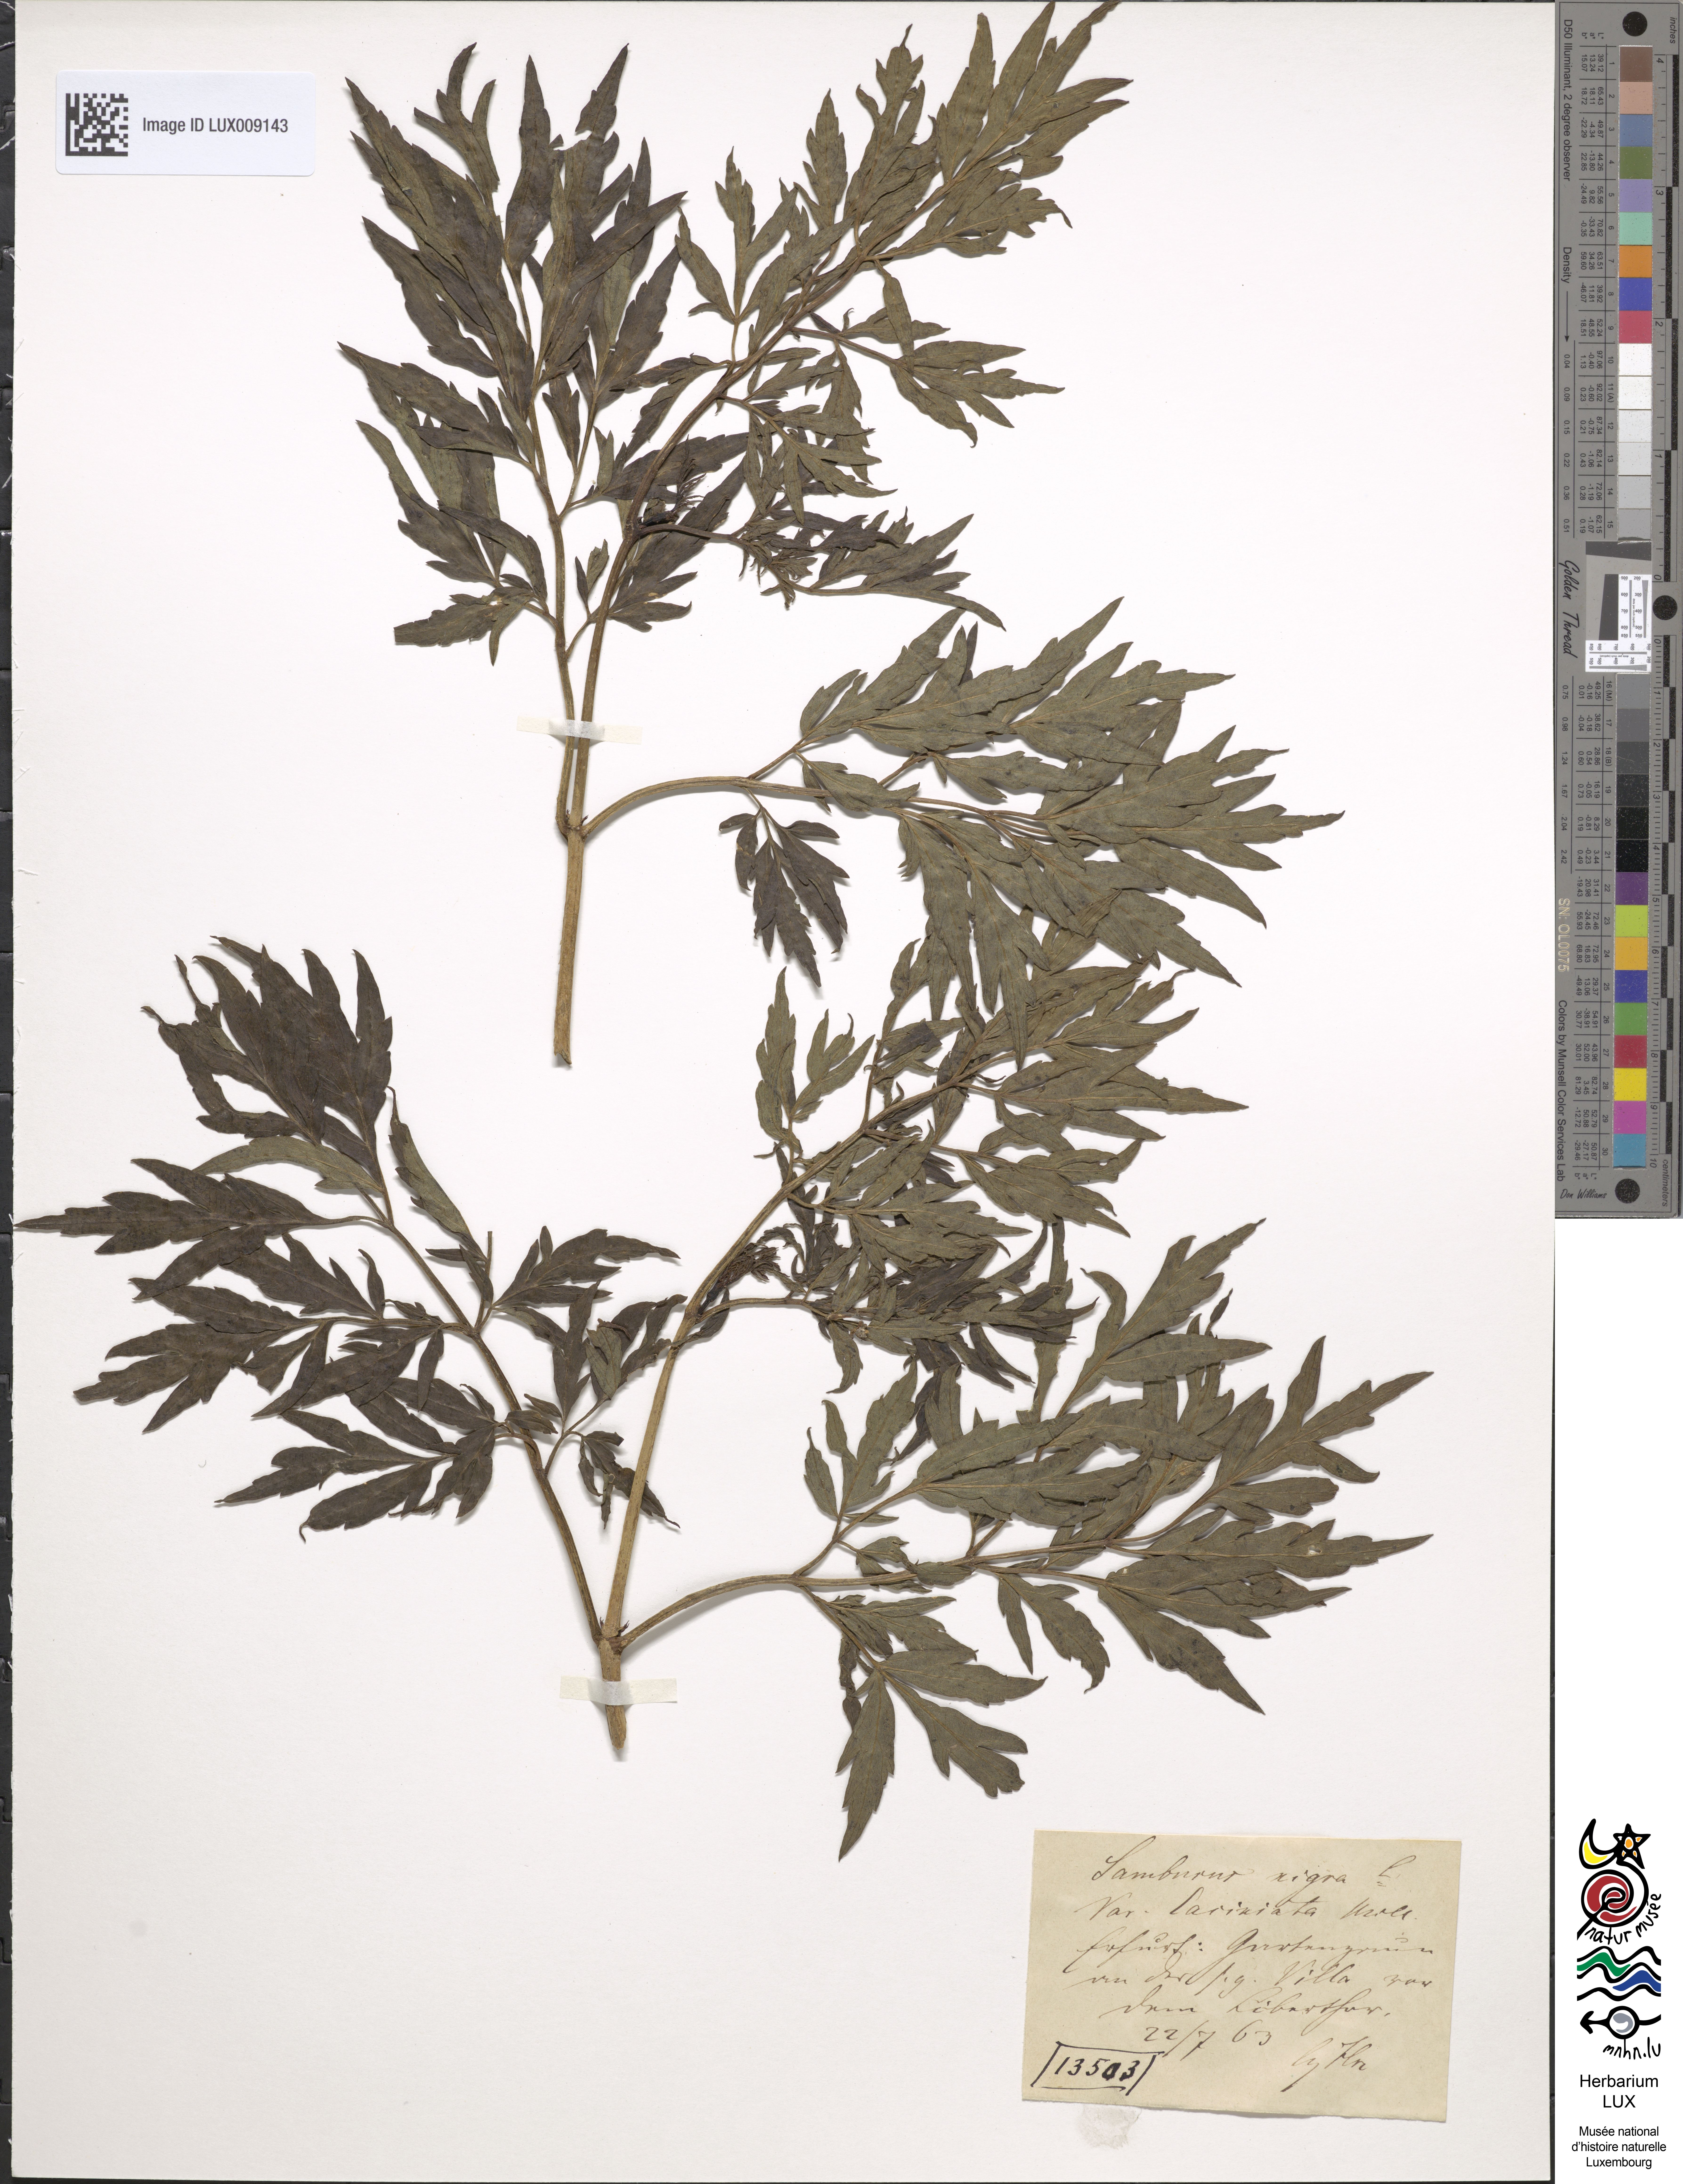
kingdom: Plantae
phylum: Tracheophyta
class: Magnoliopsida
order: Dipsacales
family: Viburnaceae
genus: Sambucus
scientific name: Sambucus nigra
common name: Elder
